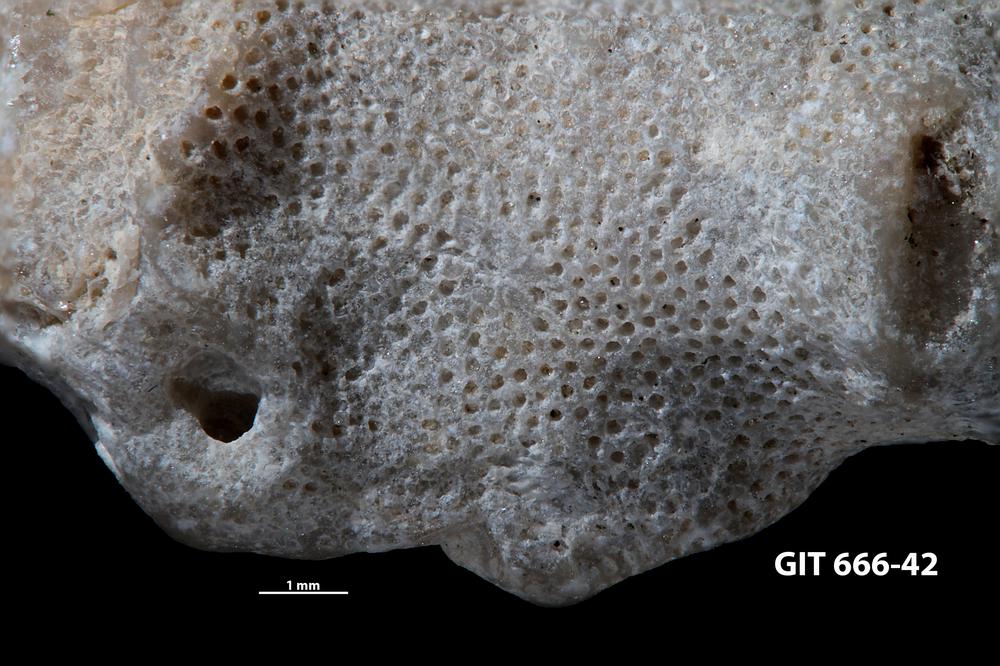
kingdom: Animalia
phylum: Bryozoa
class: Stenolaemata
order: Cystoporida
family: Fistuliporidae
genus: Fistulipora
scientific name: Fistulipora przhidolensis
